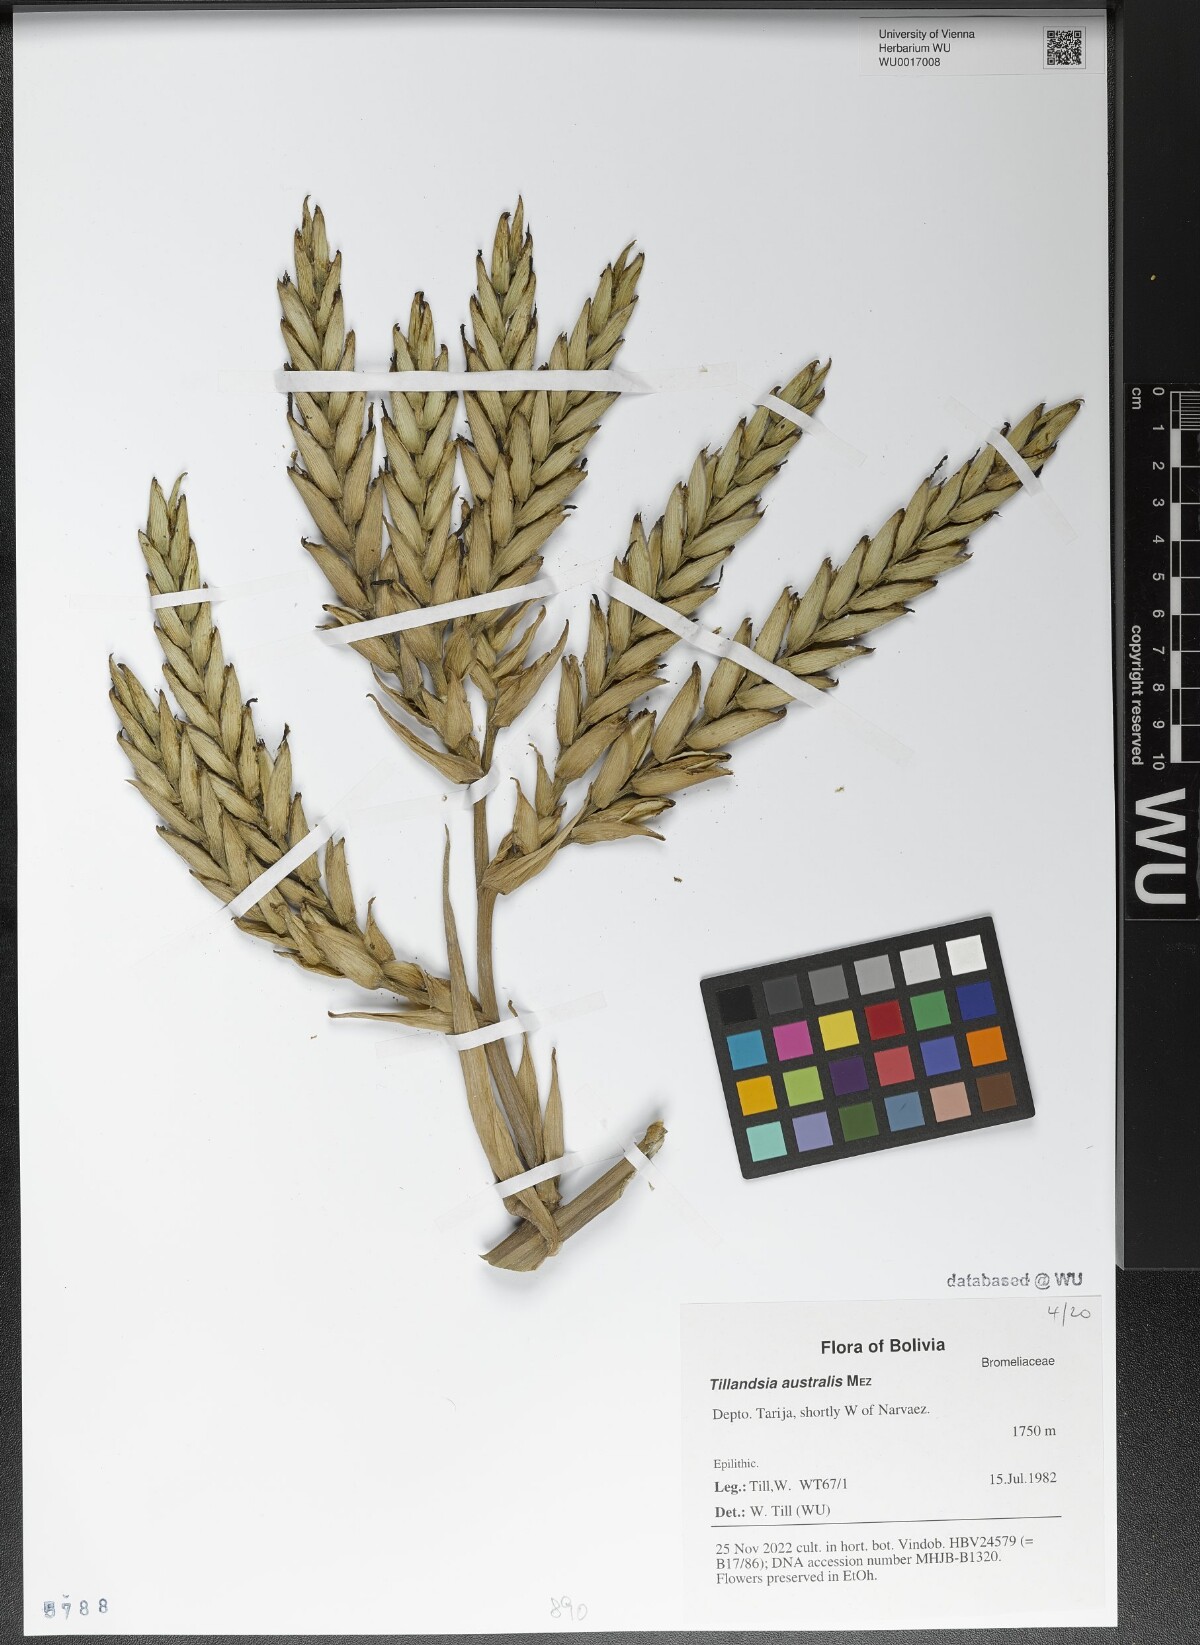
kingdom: Plantae
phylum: Tracheophyta
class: Liliopsida
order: Poales
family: Bromeliaceae
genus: Tillandsia
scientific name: Tillandsia australis
